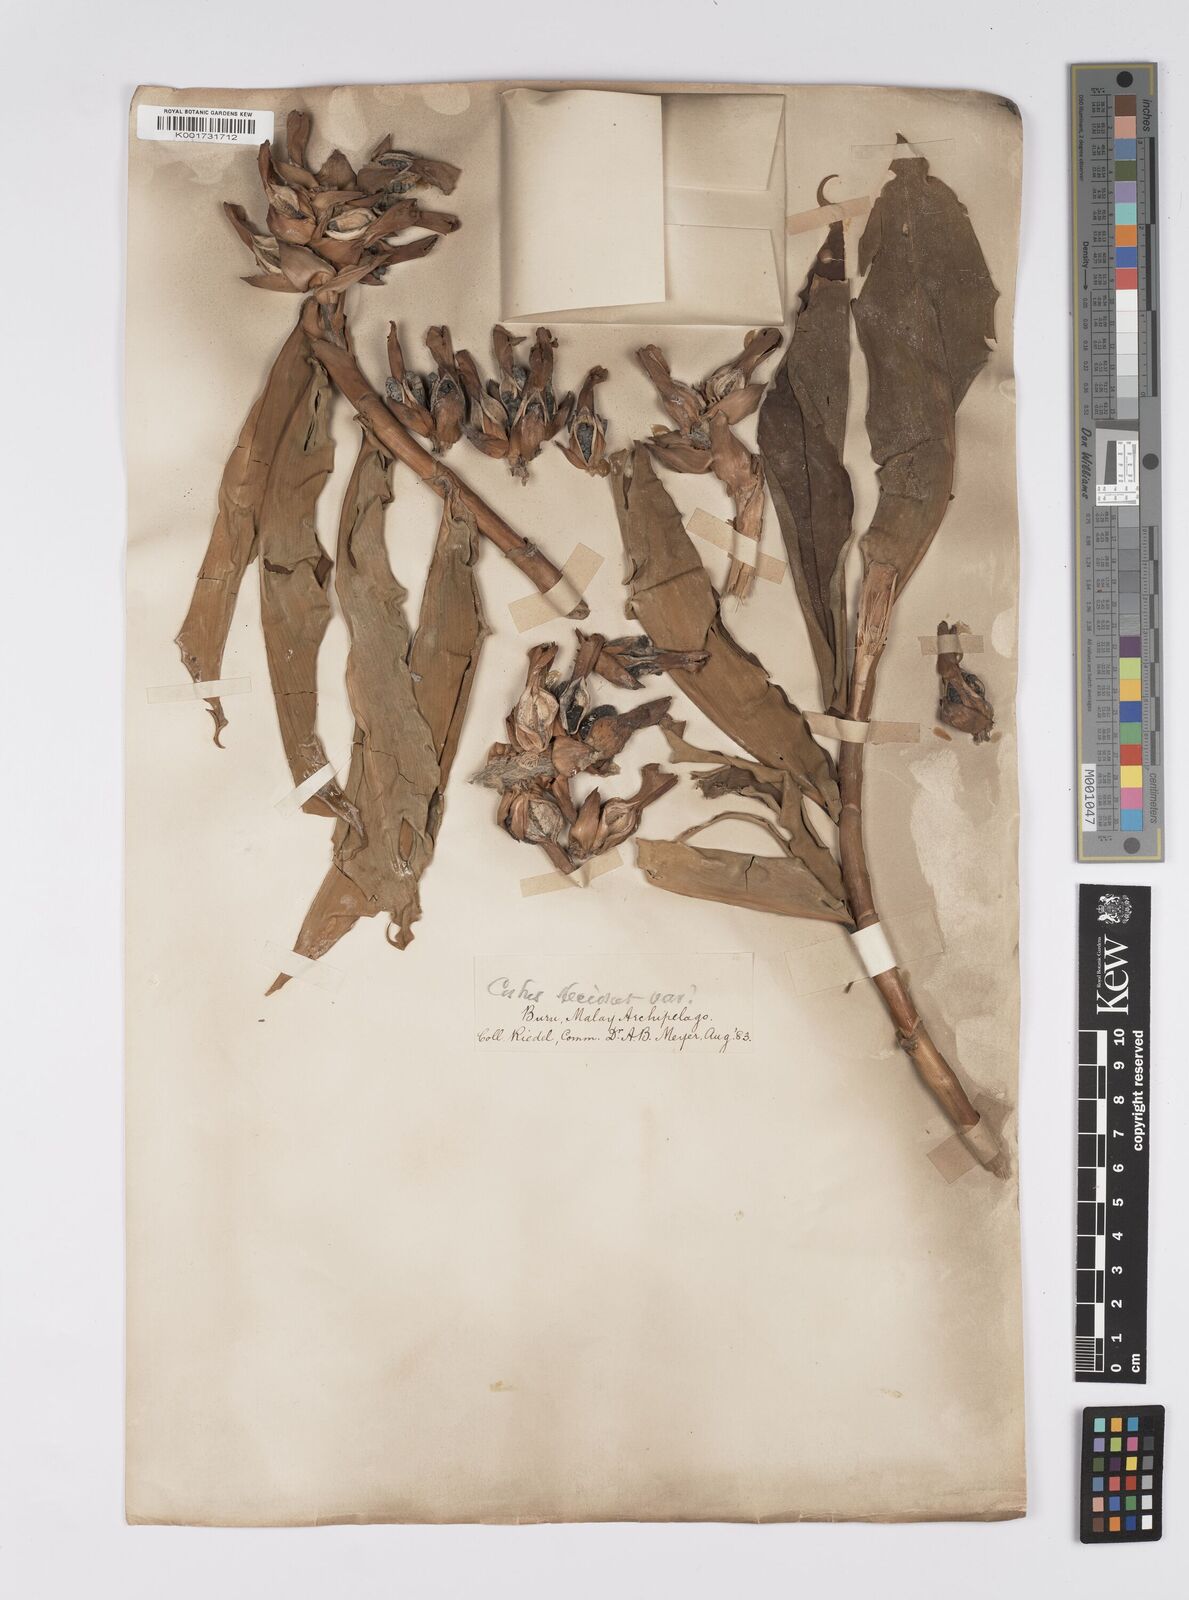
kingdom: Plantae
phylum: Tracheophyta
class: Liliopsida
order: Zingiberales
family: Costaceae
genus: Hellenia
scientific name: Hellenia speciosa
